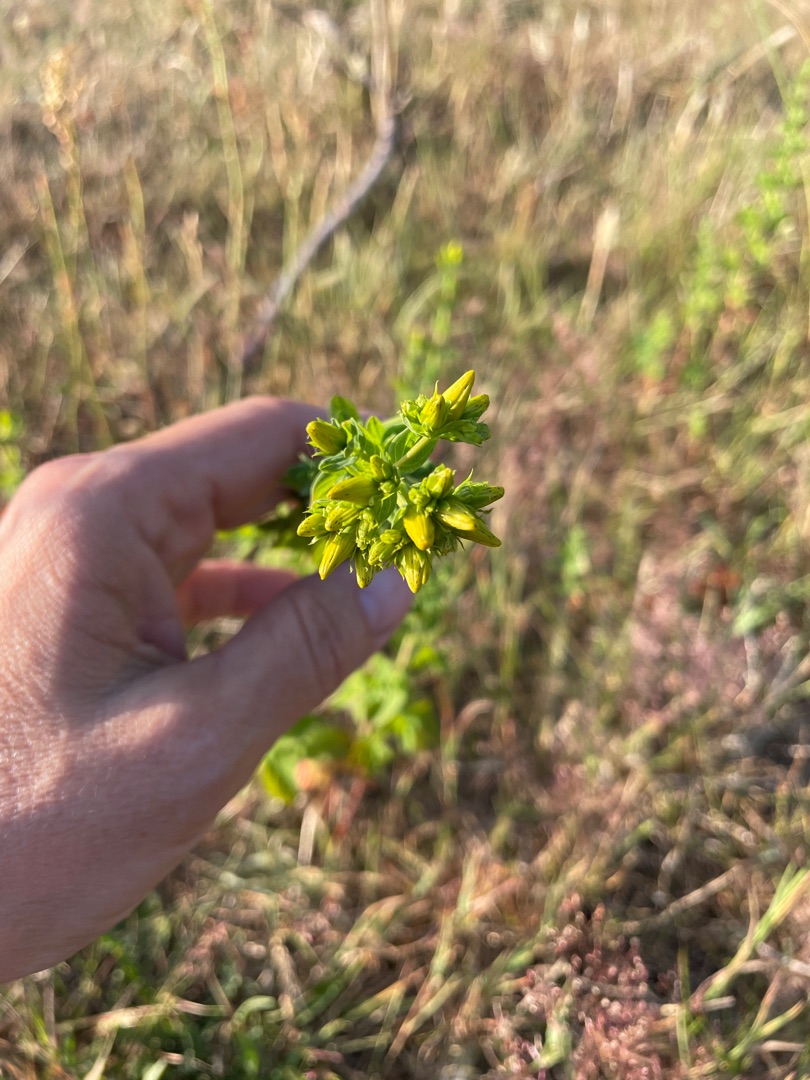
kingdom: Plantae
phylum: Tracheophyta
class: Magnoliopsida
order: Malpighiales
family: Hypericaceae
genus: Hypericum
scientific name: Hypericum perforatum
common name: Prikbladet perikon
